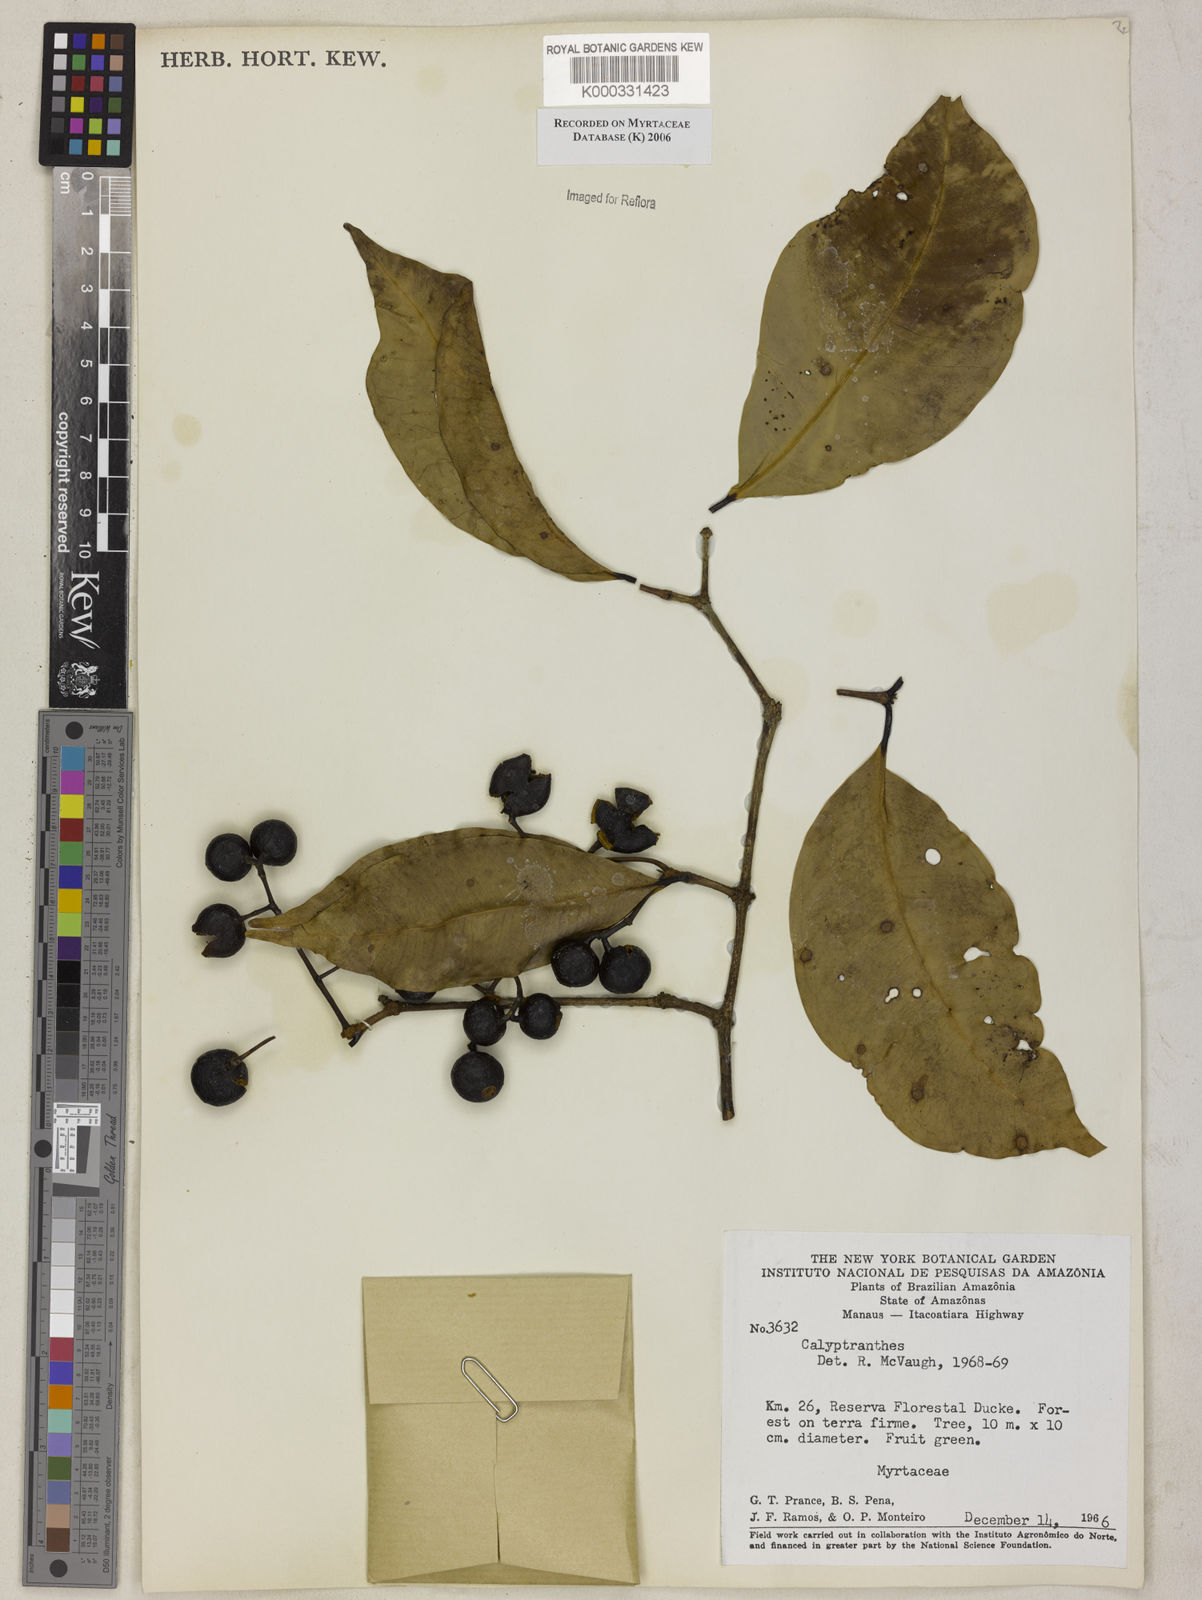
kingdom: Plantae
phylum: Tracheophyta
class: Magnoliopsida
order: Myrtales
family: Myrtaceae
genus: Calyptranthes
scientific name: Calyptranthes
